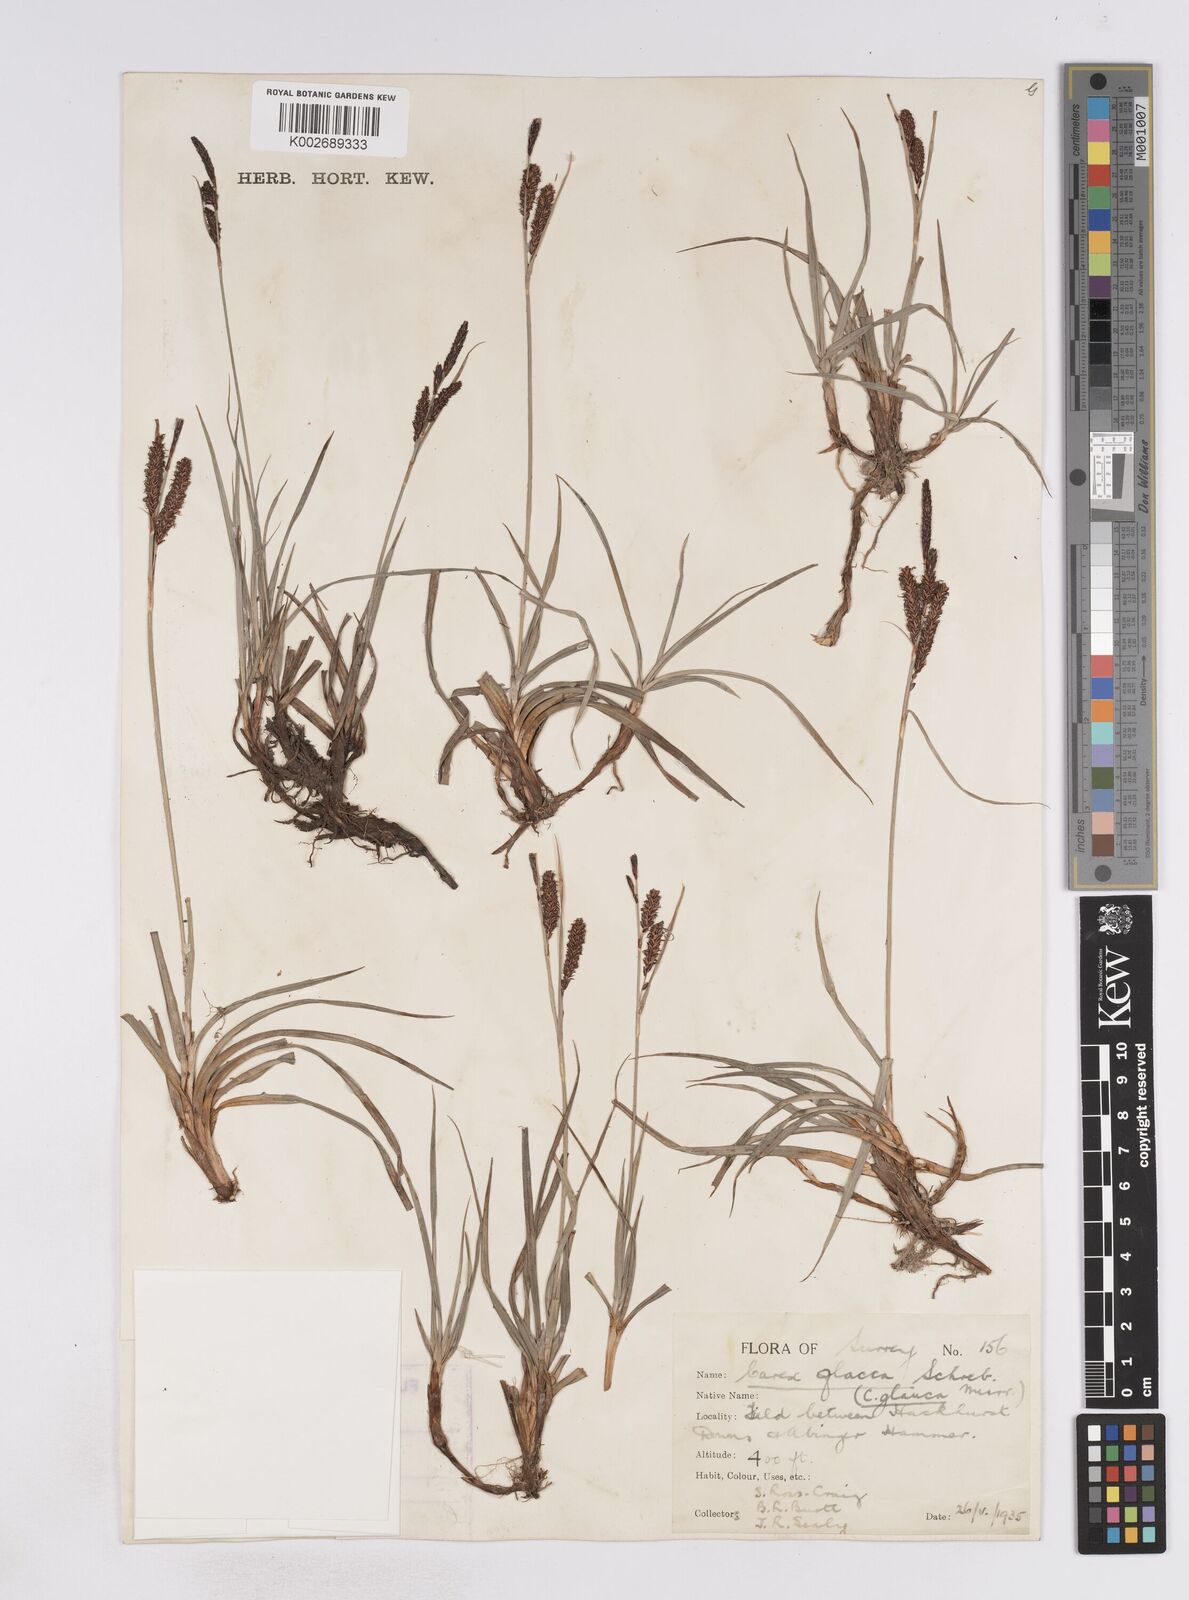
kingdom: Plantae
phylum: Tracheophyta
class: Liliopsida
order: Poales
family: Cyperaceae
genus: Carex
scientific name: Carex flacca
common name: Glaucous sedge
